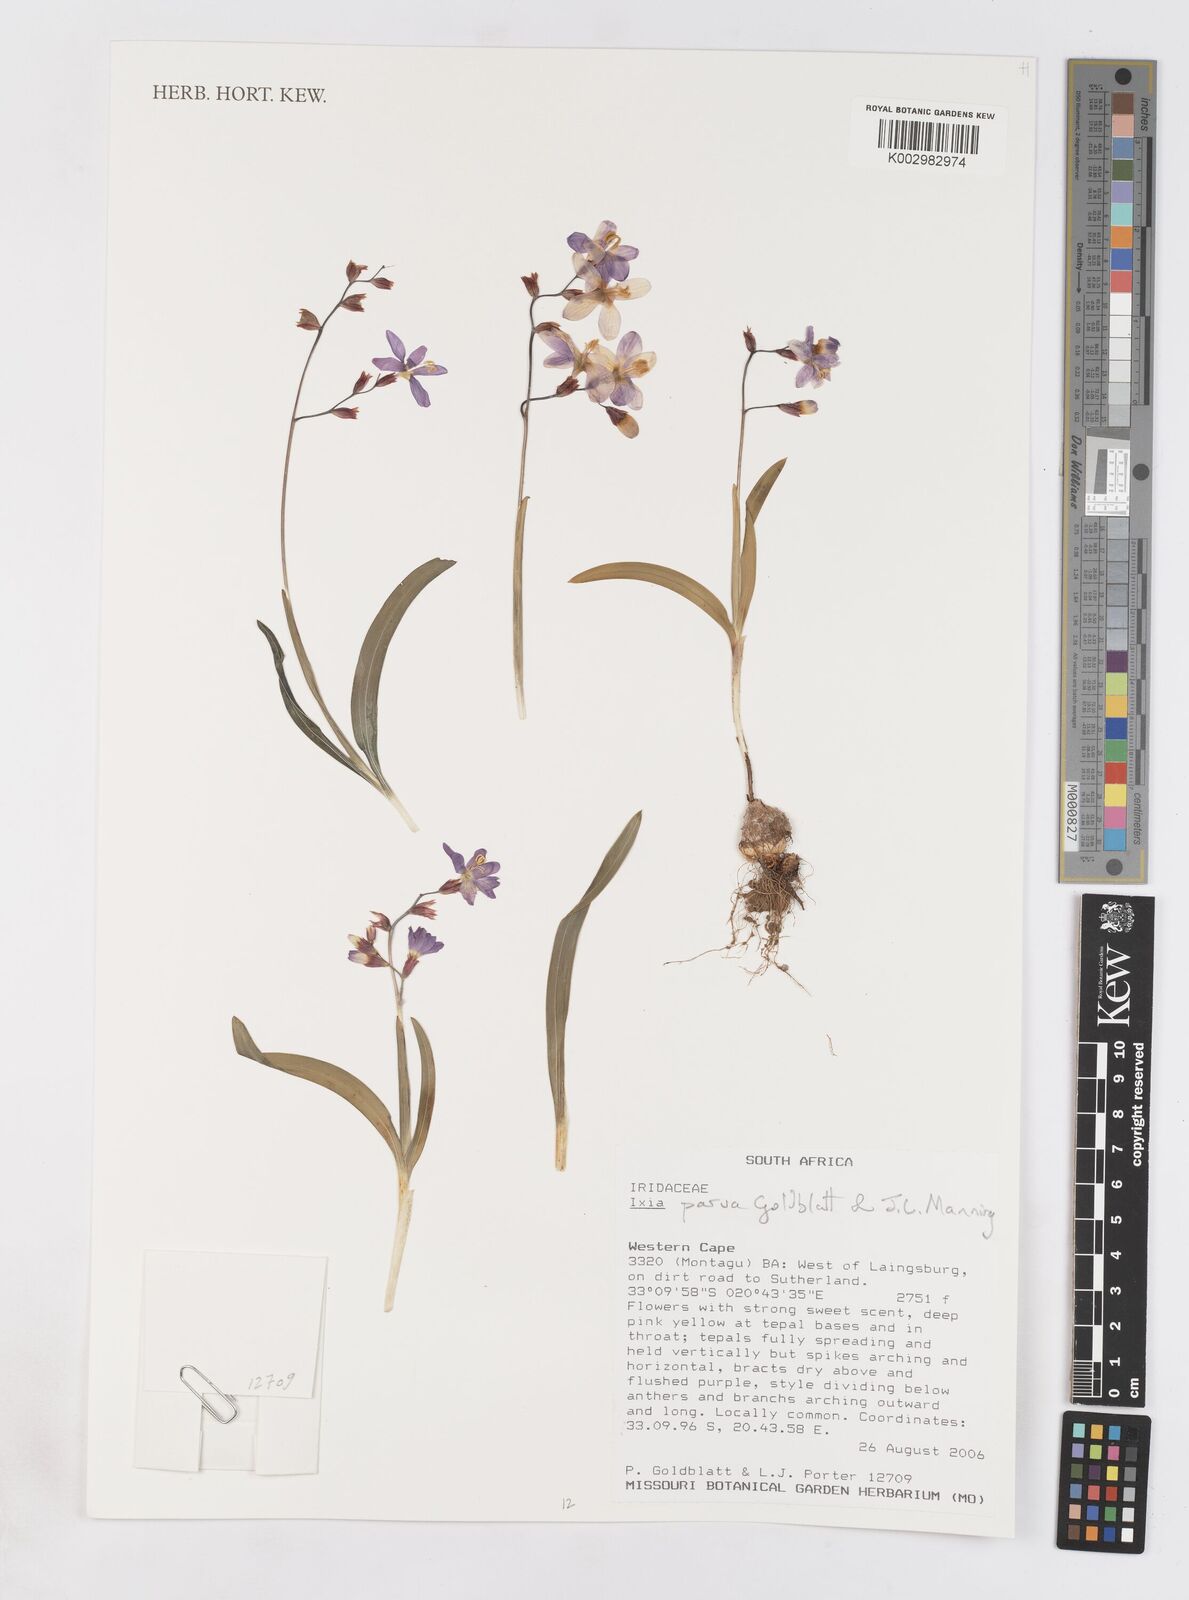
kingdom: Plantae
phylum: Tracheophyta
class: Liliopsida
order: Asparagales
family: Iridaceae
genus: Ixia
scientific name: Ixia parva
